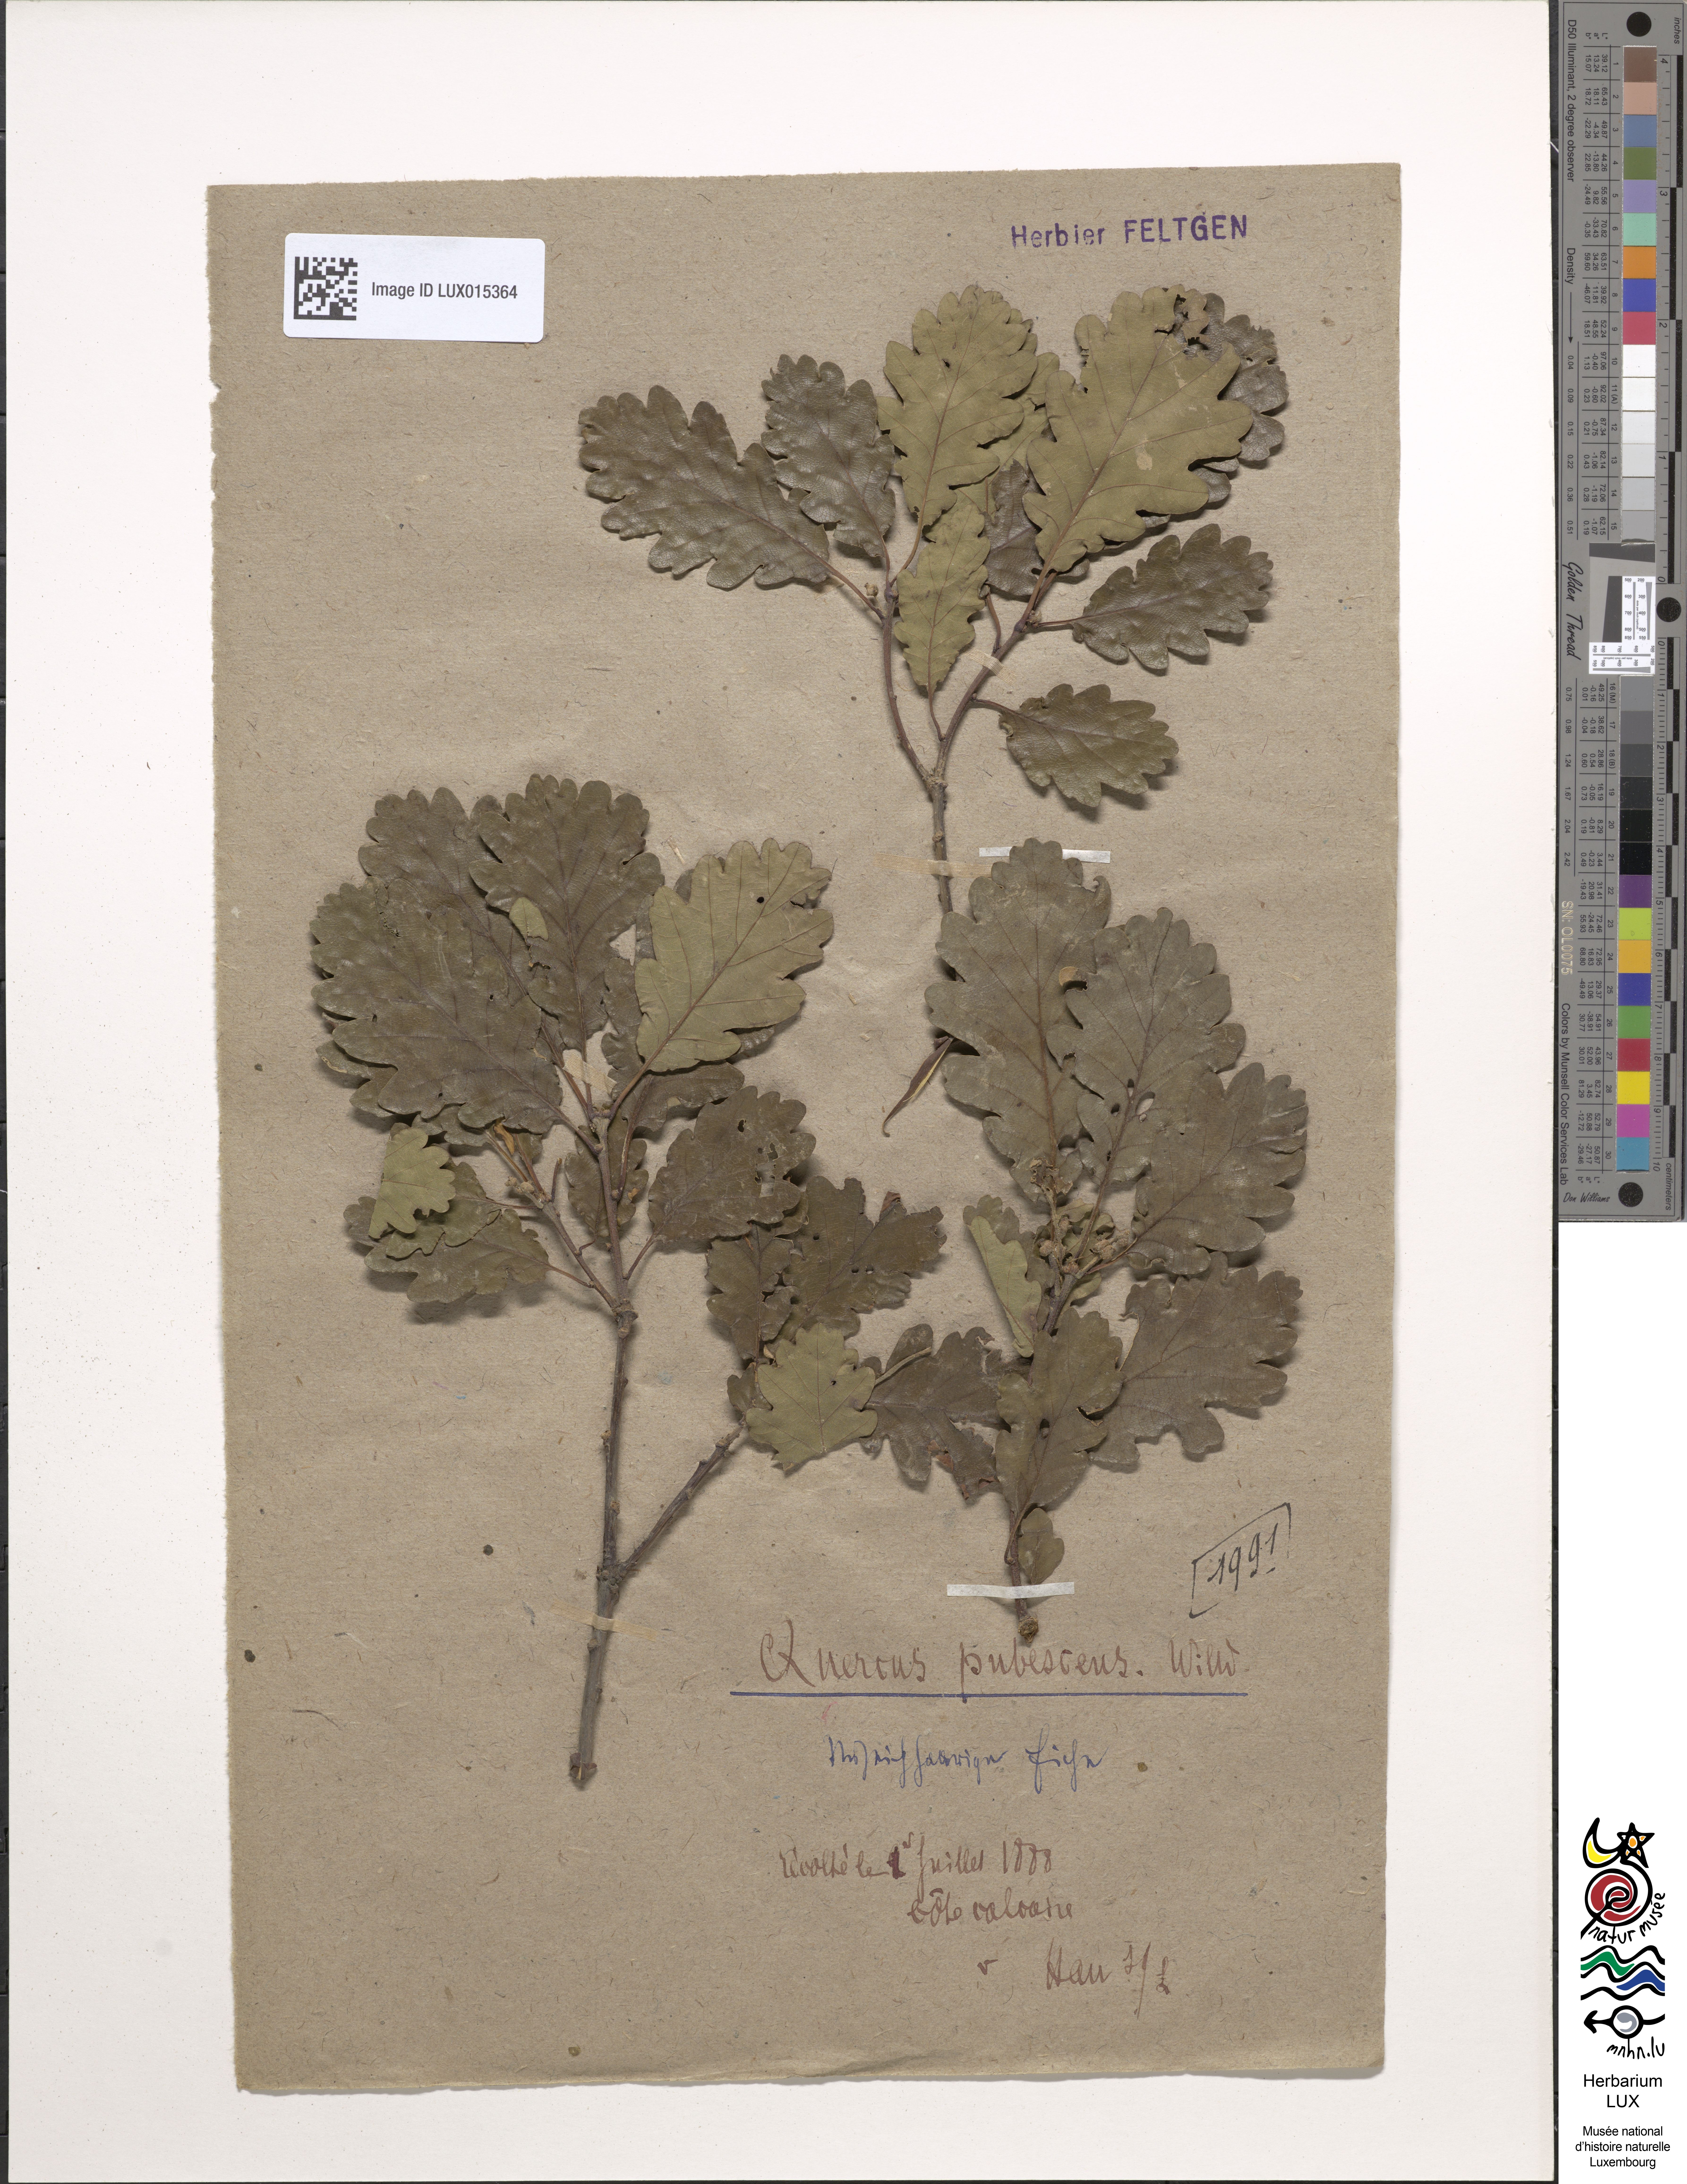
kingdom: Plantae
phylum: Tracheophyta
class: Magnoliopsida
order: Fagales
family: Fagaceae
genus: Quercus
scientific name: Quercus pubescens
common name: Downy oak
